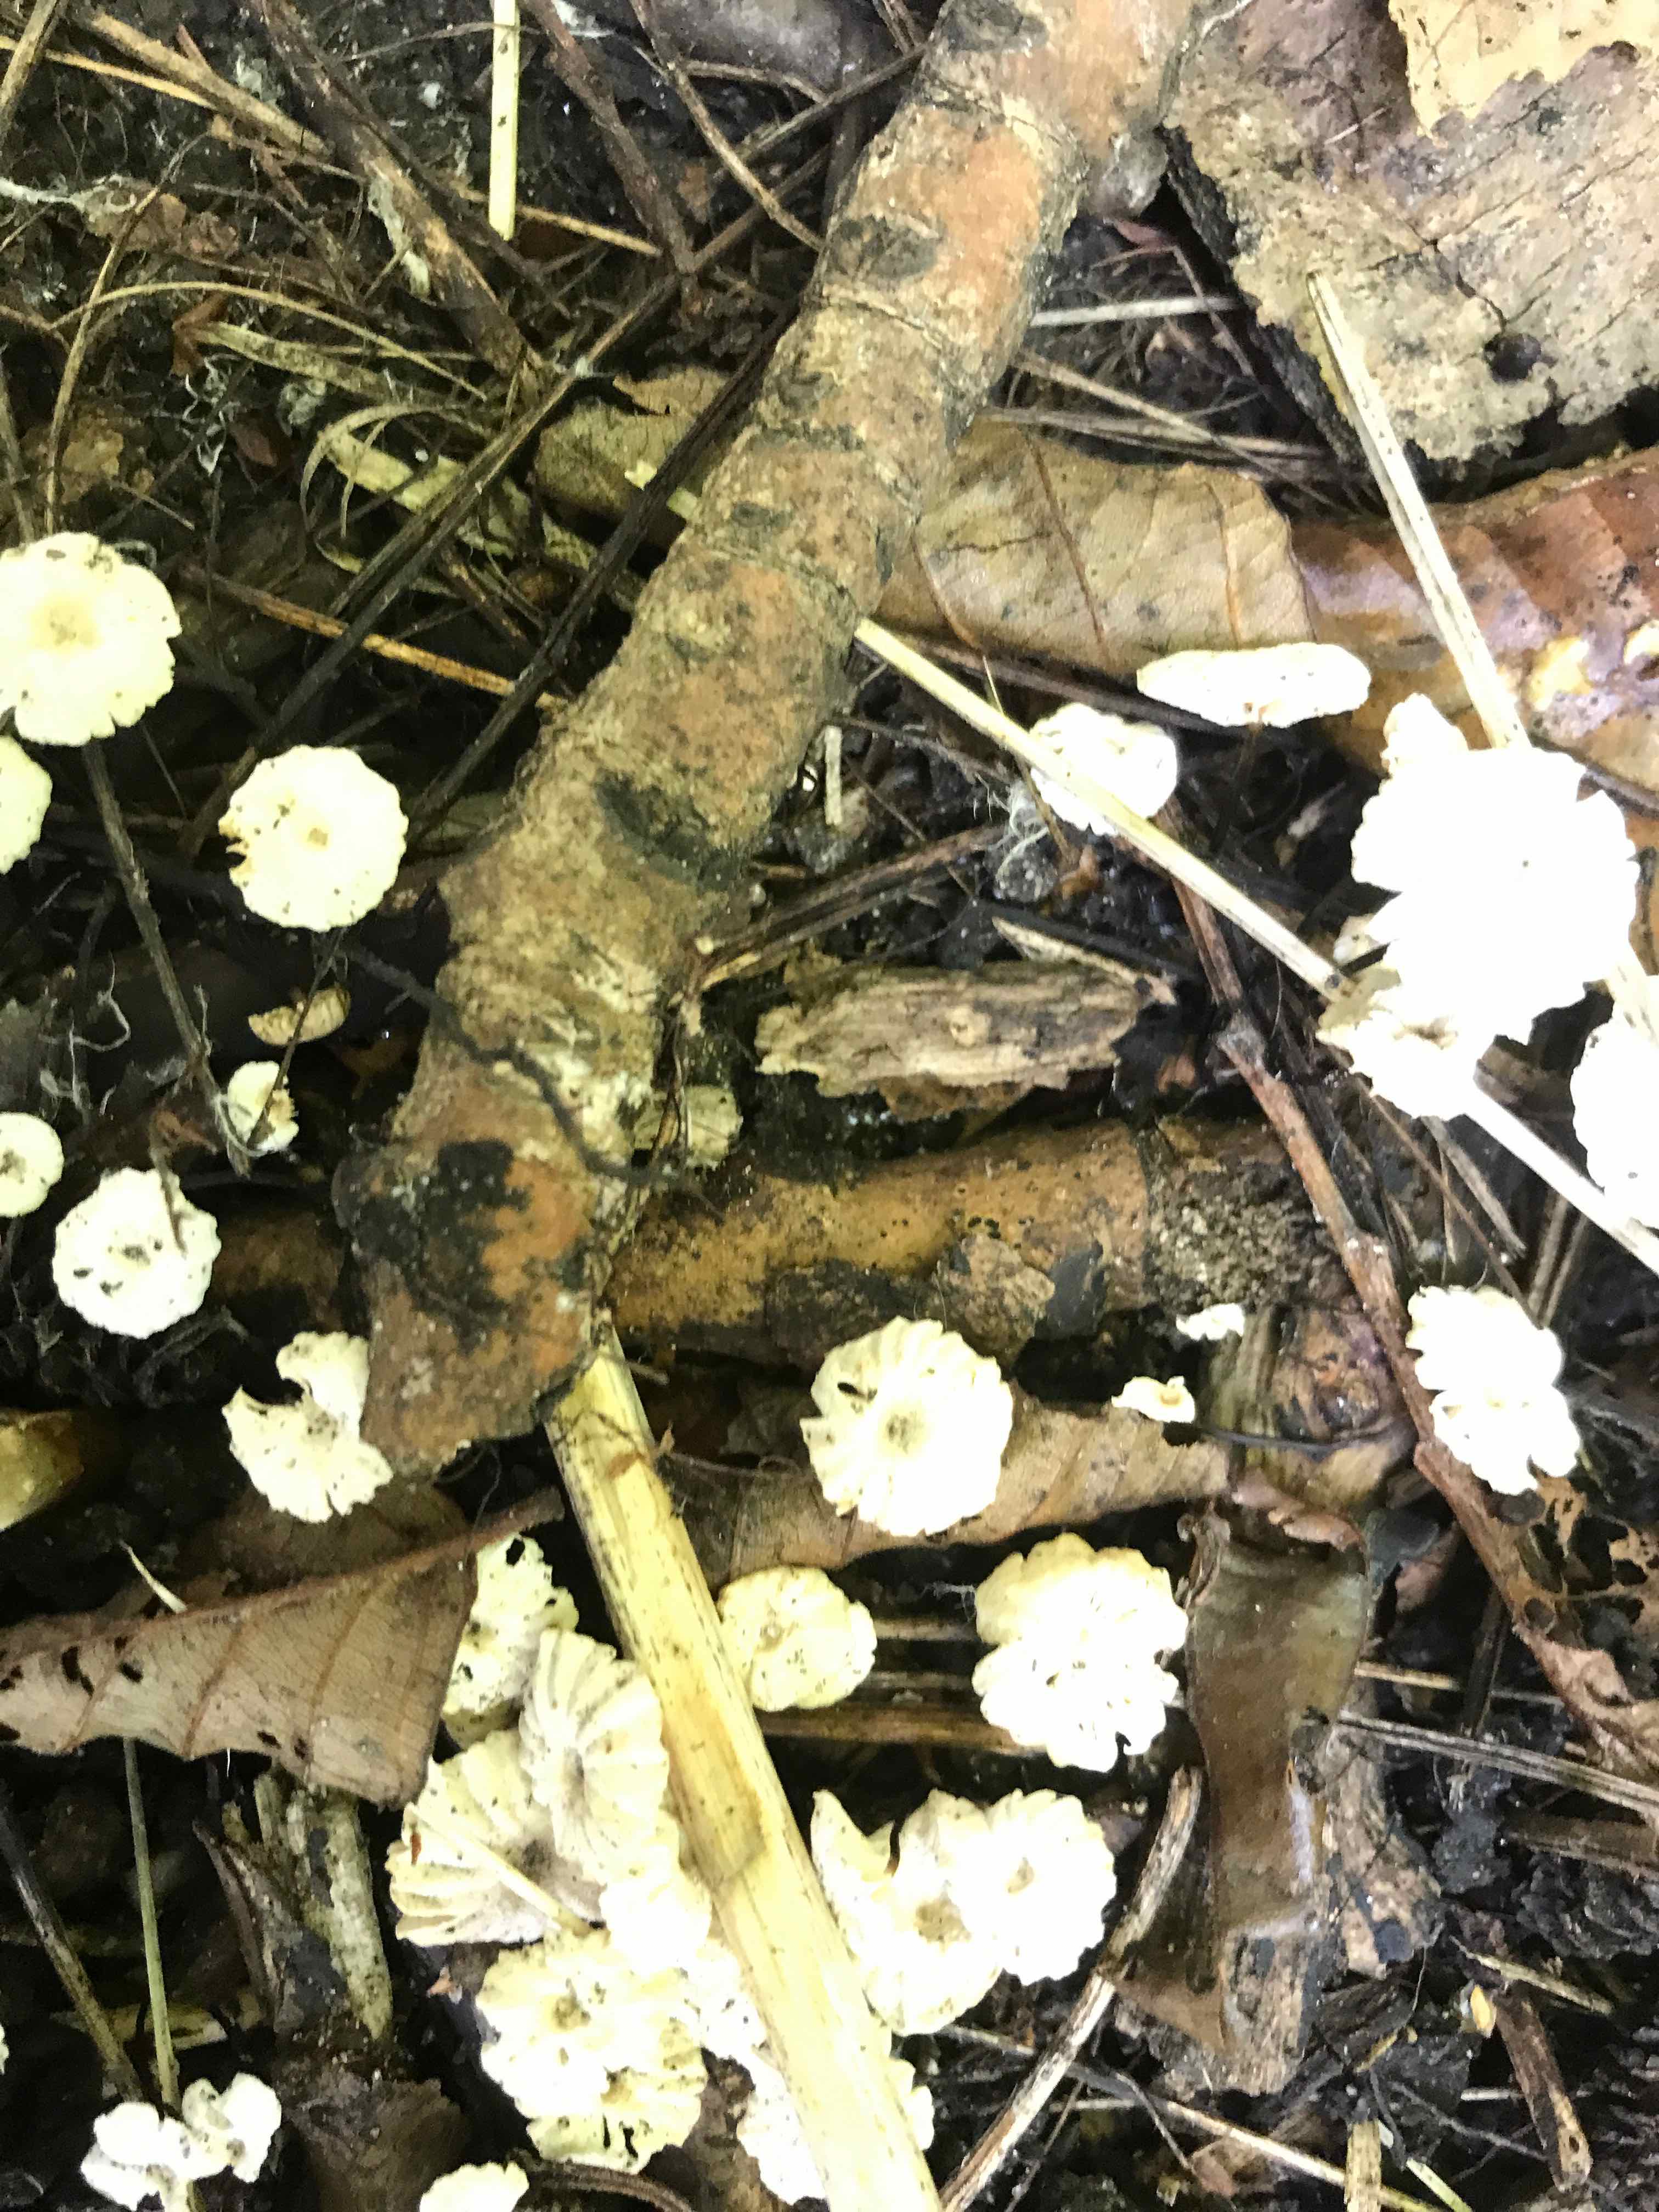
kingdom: Fungi
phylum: Basidiomycota
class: Agaricomycetes
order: Agaricales
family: Marasmiaceae
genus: Marasmius
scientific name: Marasmius rotula
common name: hjul-bruskhat
